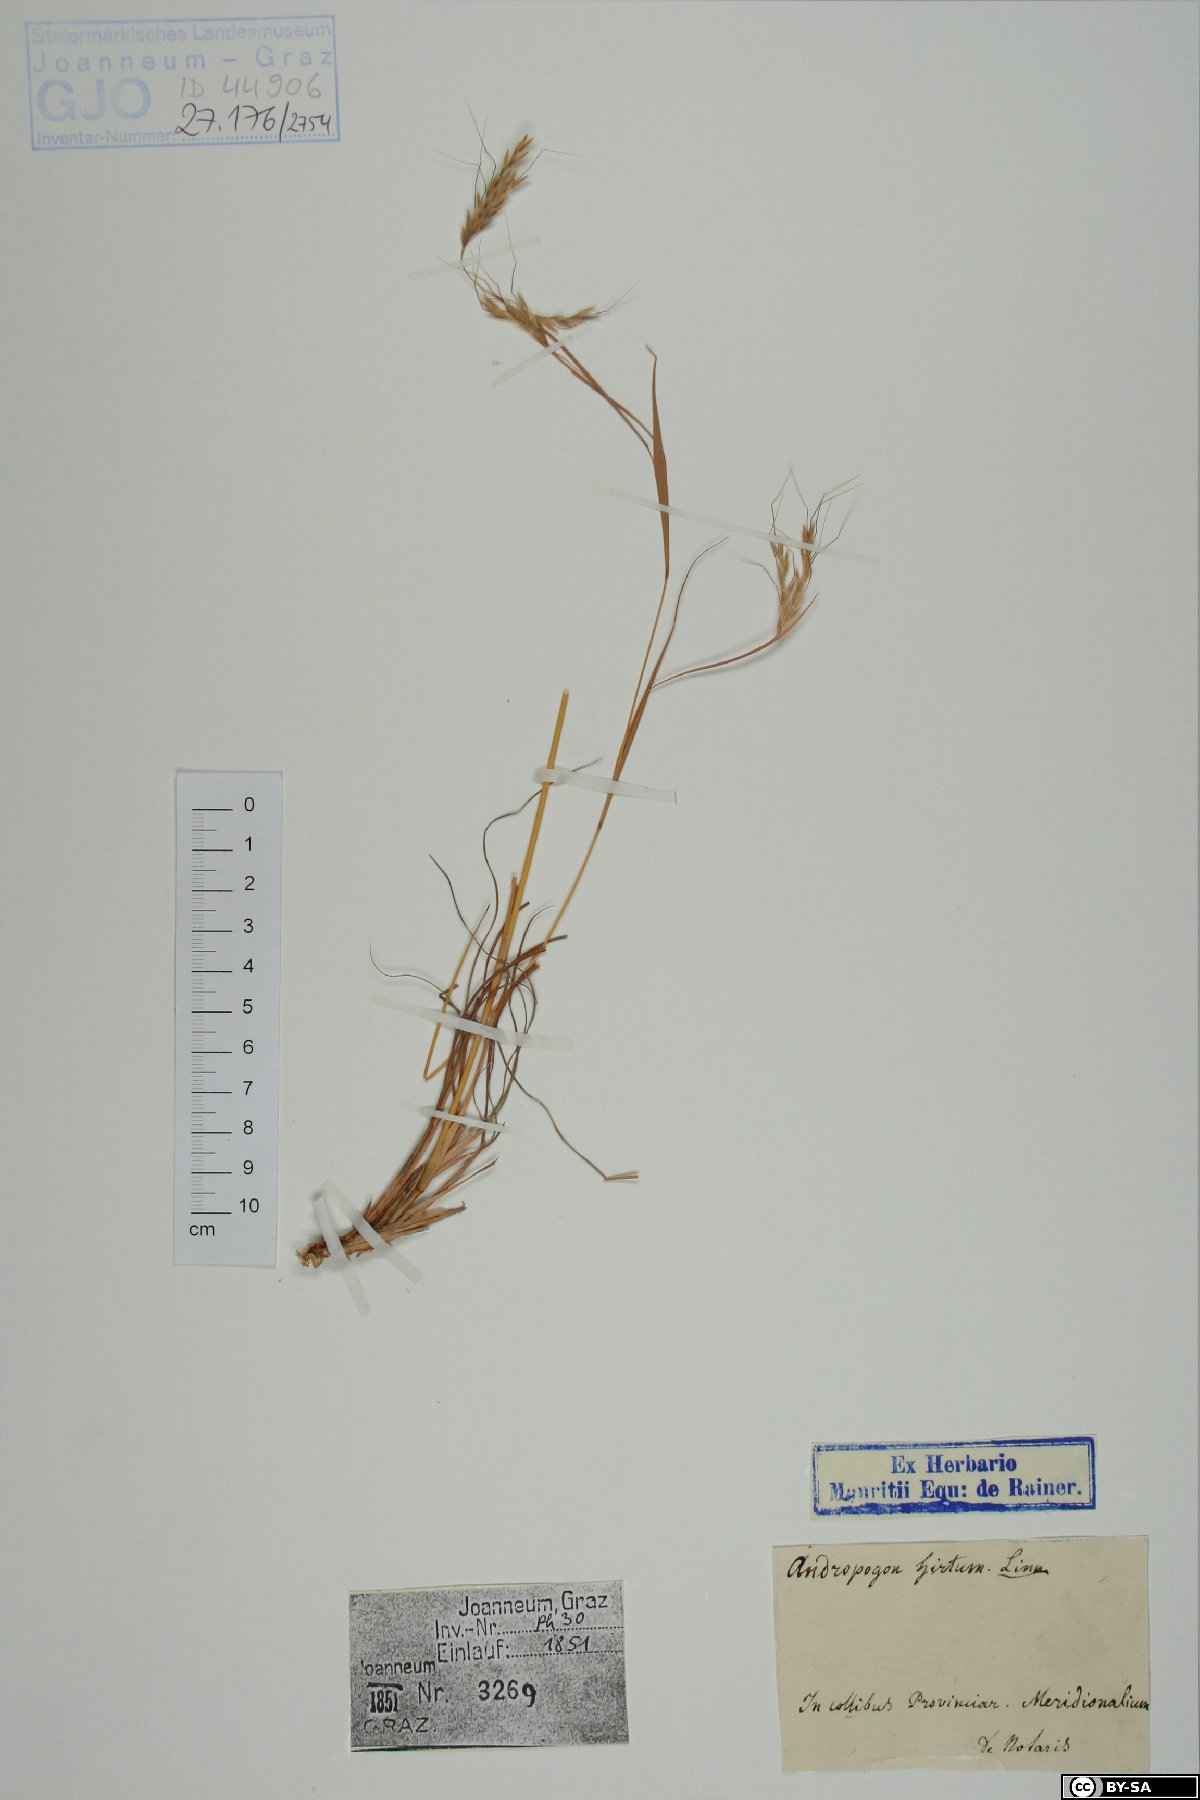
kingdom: Plantae
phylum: Tracheophyta
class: Liliopsida
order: Poales
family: Poaceae
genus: Hyparrhenia
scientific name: Hyparrhenia hirta
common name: Thatching grass
